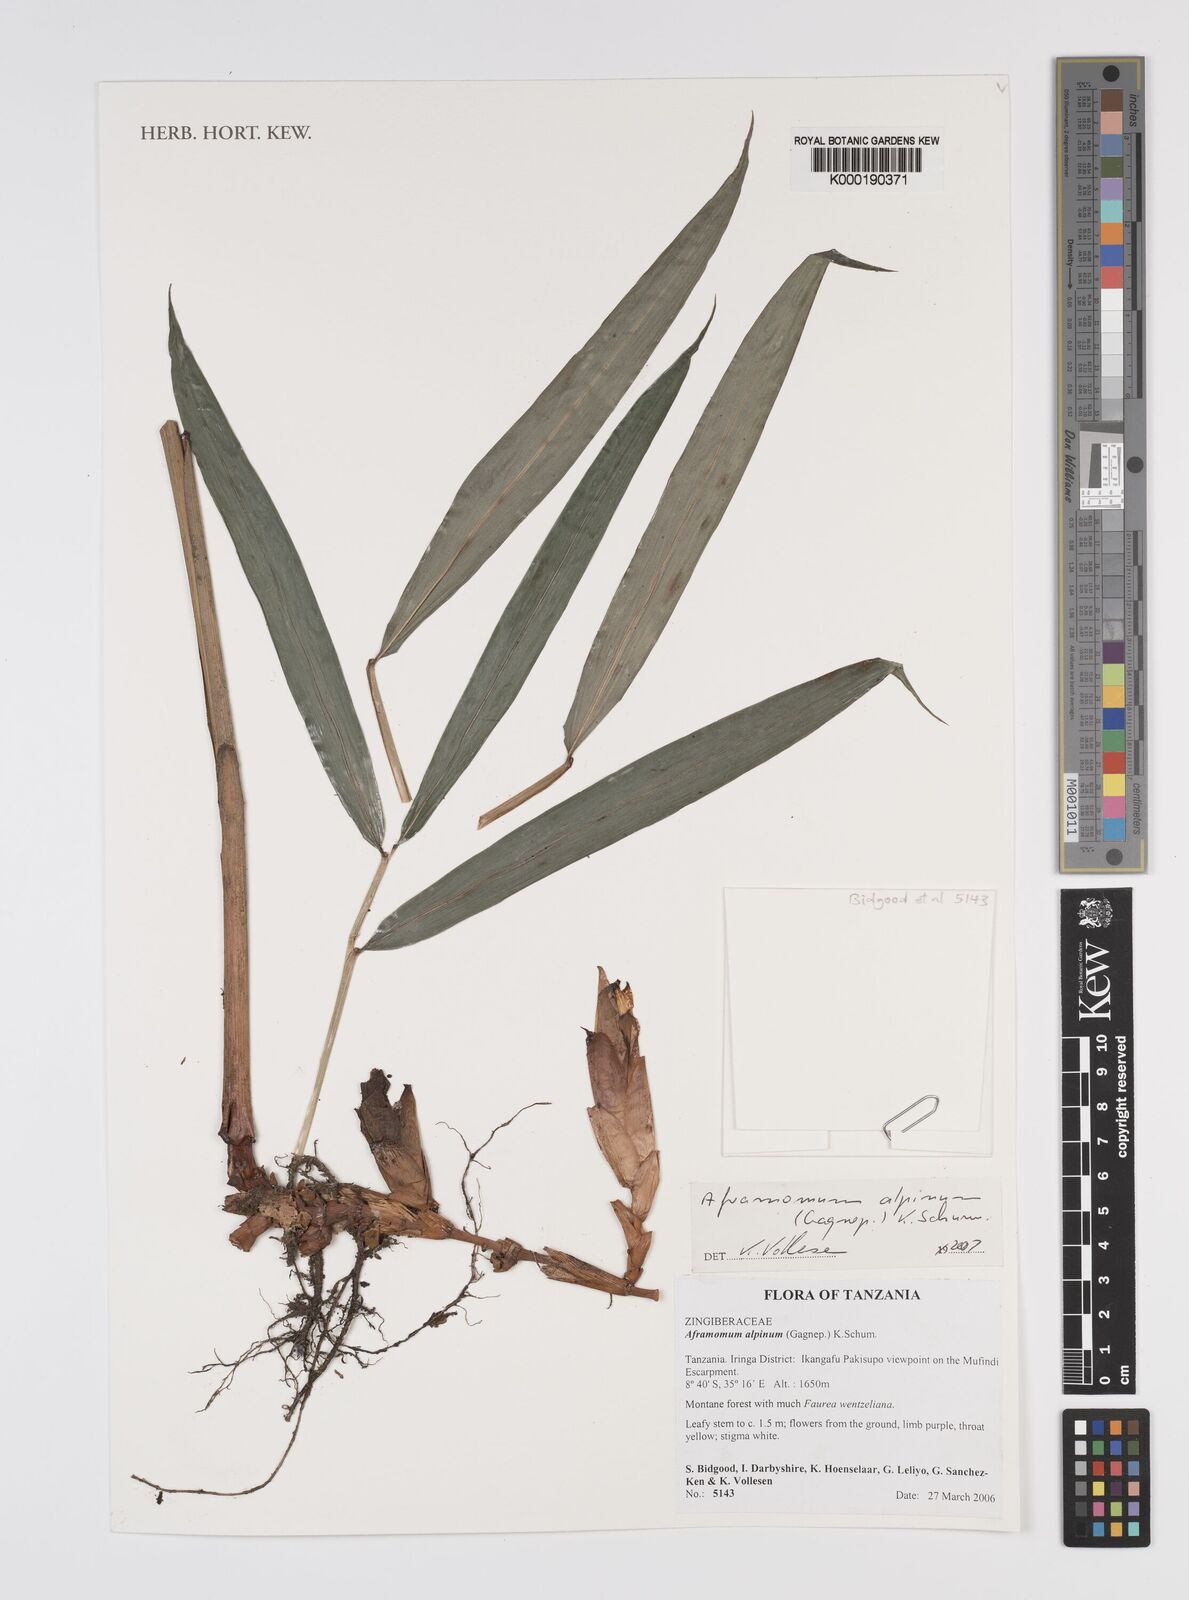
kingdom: Plantae
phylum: Tracheophyta
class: Liliopsida
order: Zingiberales
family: Zingiberaceae
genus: Aframomum
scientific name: Aframomum alpinum
